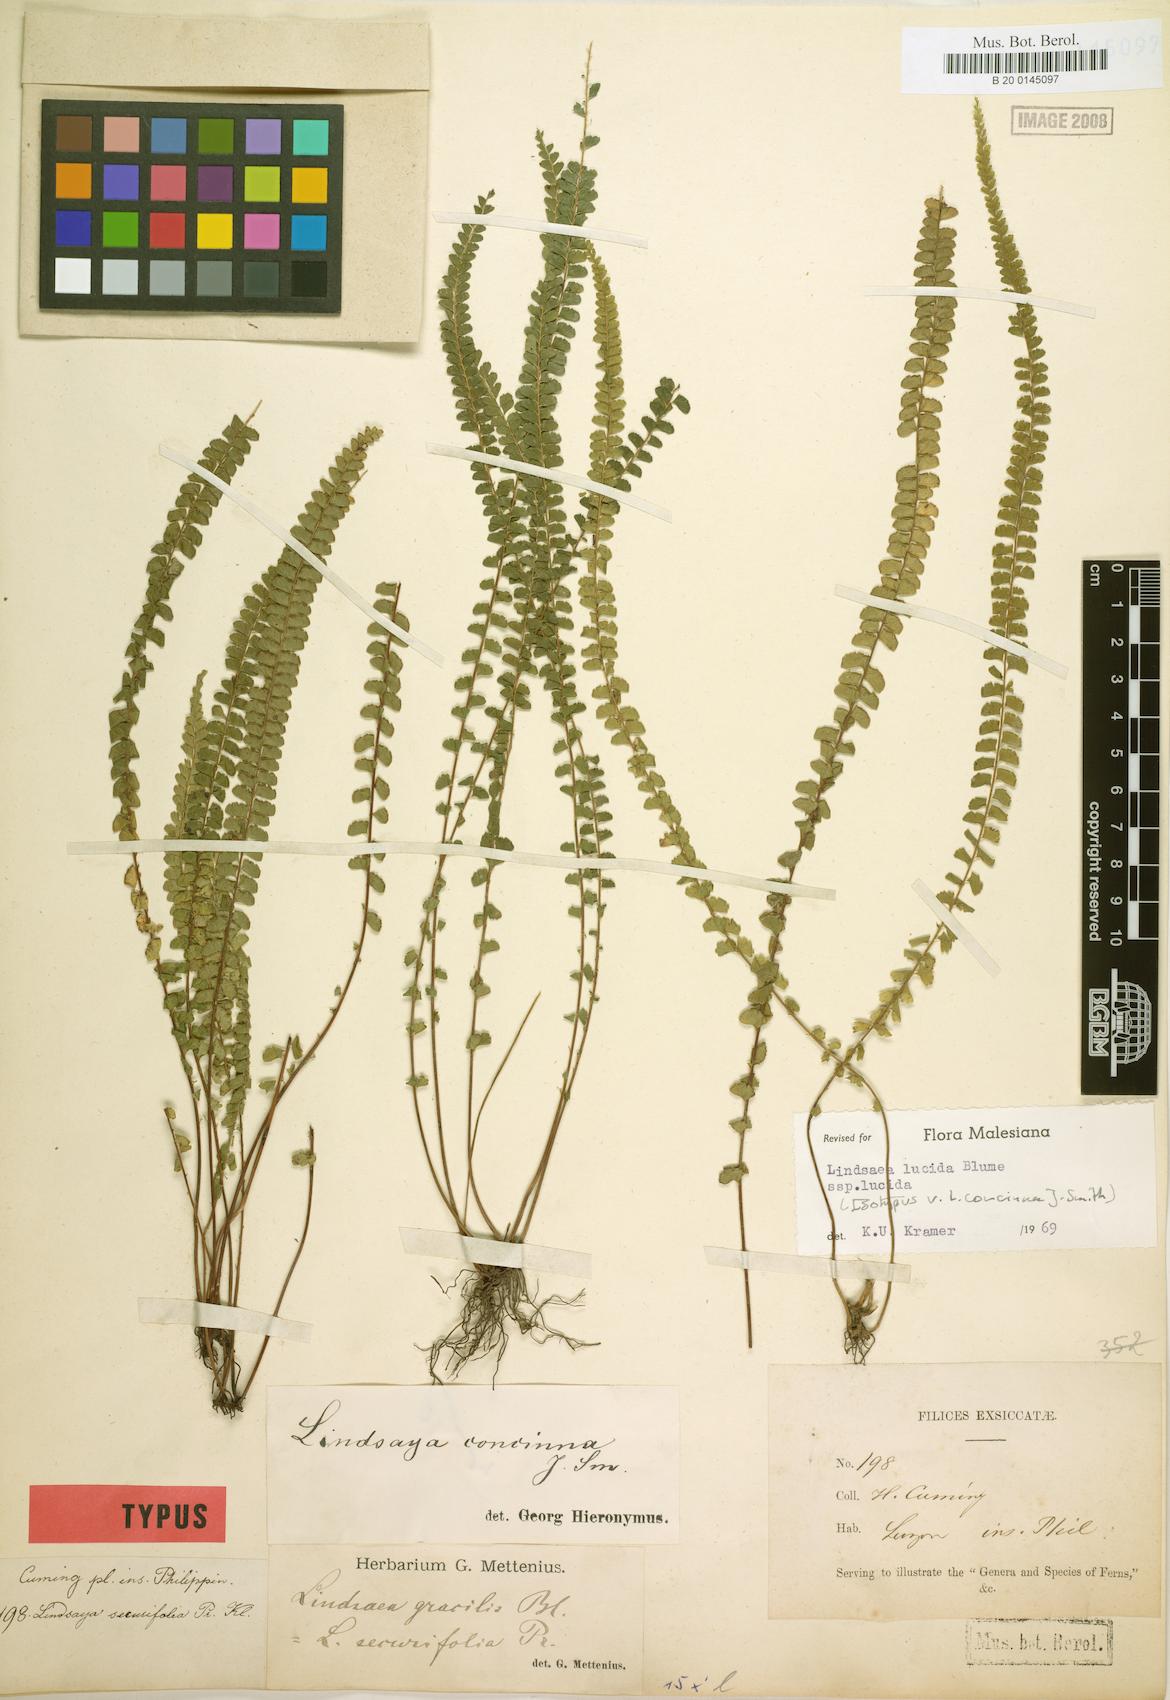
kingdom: Plantae
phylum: Tracheophyta
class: Polypodiopsida
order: Polypodiales
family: Lindsaeaceae
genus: Lindsaea
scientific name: Lindsaea lucida
